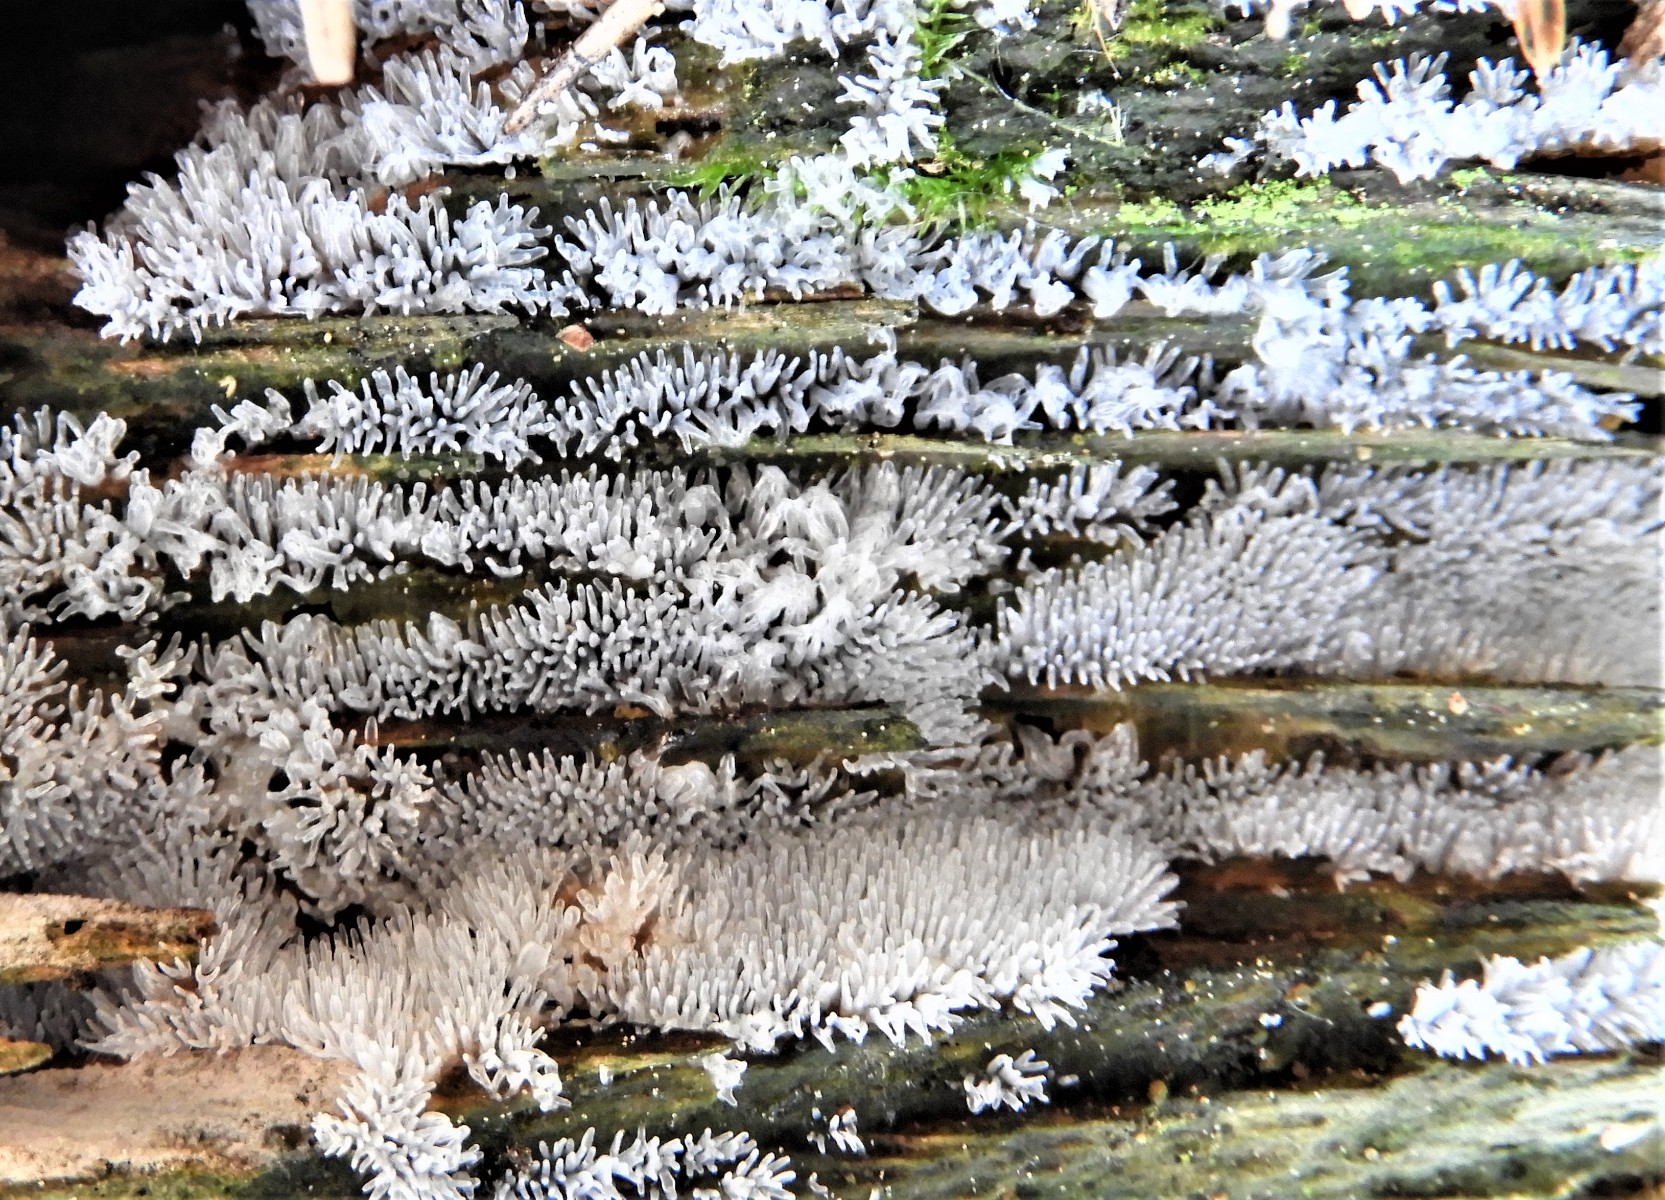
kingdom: Protozoa
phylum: Mycetozoa
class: Protosteliomycetes
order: Ceratiomyxales
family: Ceratiomyxaceae
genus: Ceratiomyxa
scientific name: Ceratiomyxa fruticulosa
